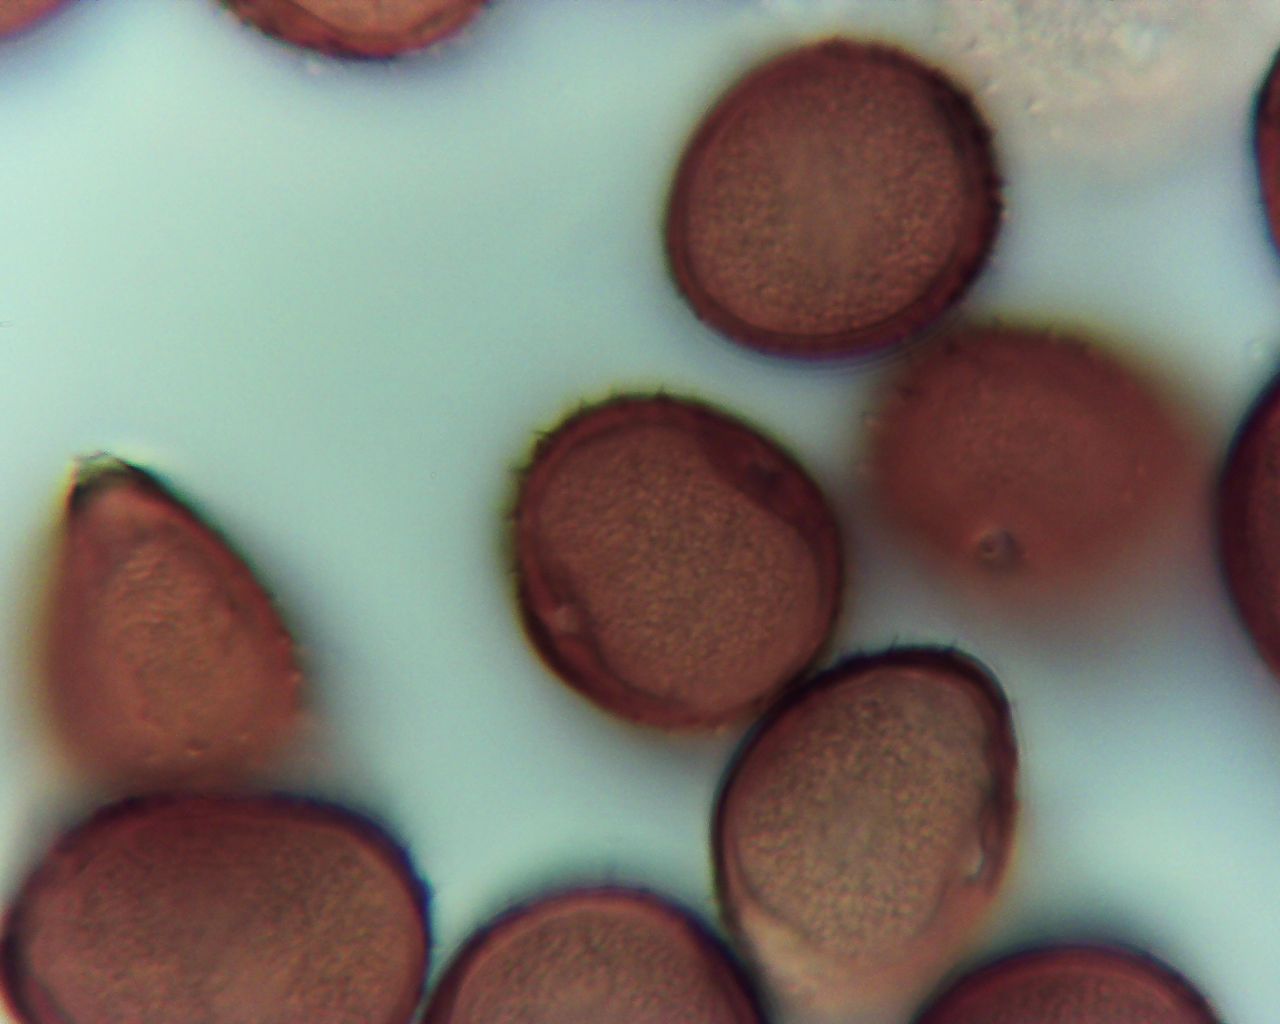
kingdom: Fungi
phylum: Basidiomycota
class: Pucciniomycetes
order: Pucciniales
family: Pucciniaceae
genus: Puccinia
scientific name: Puccinia hieracii
